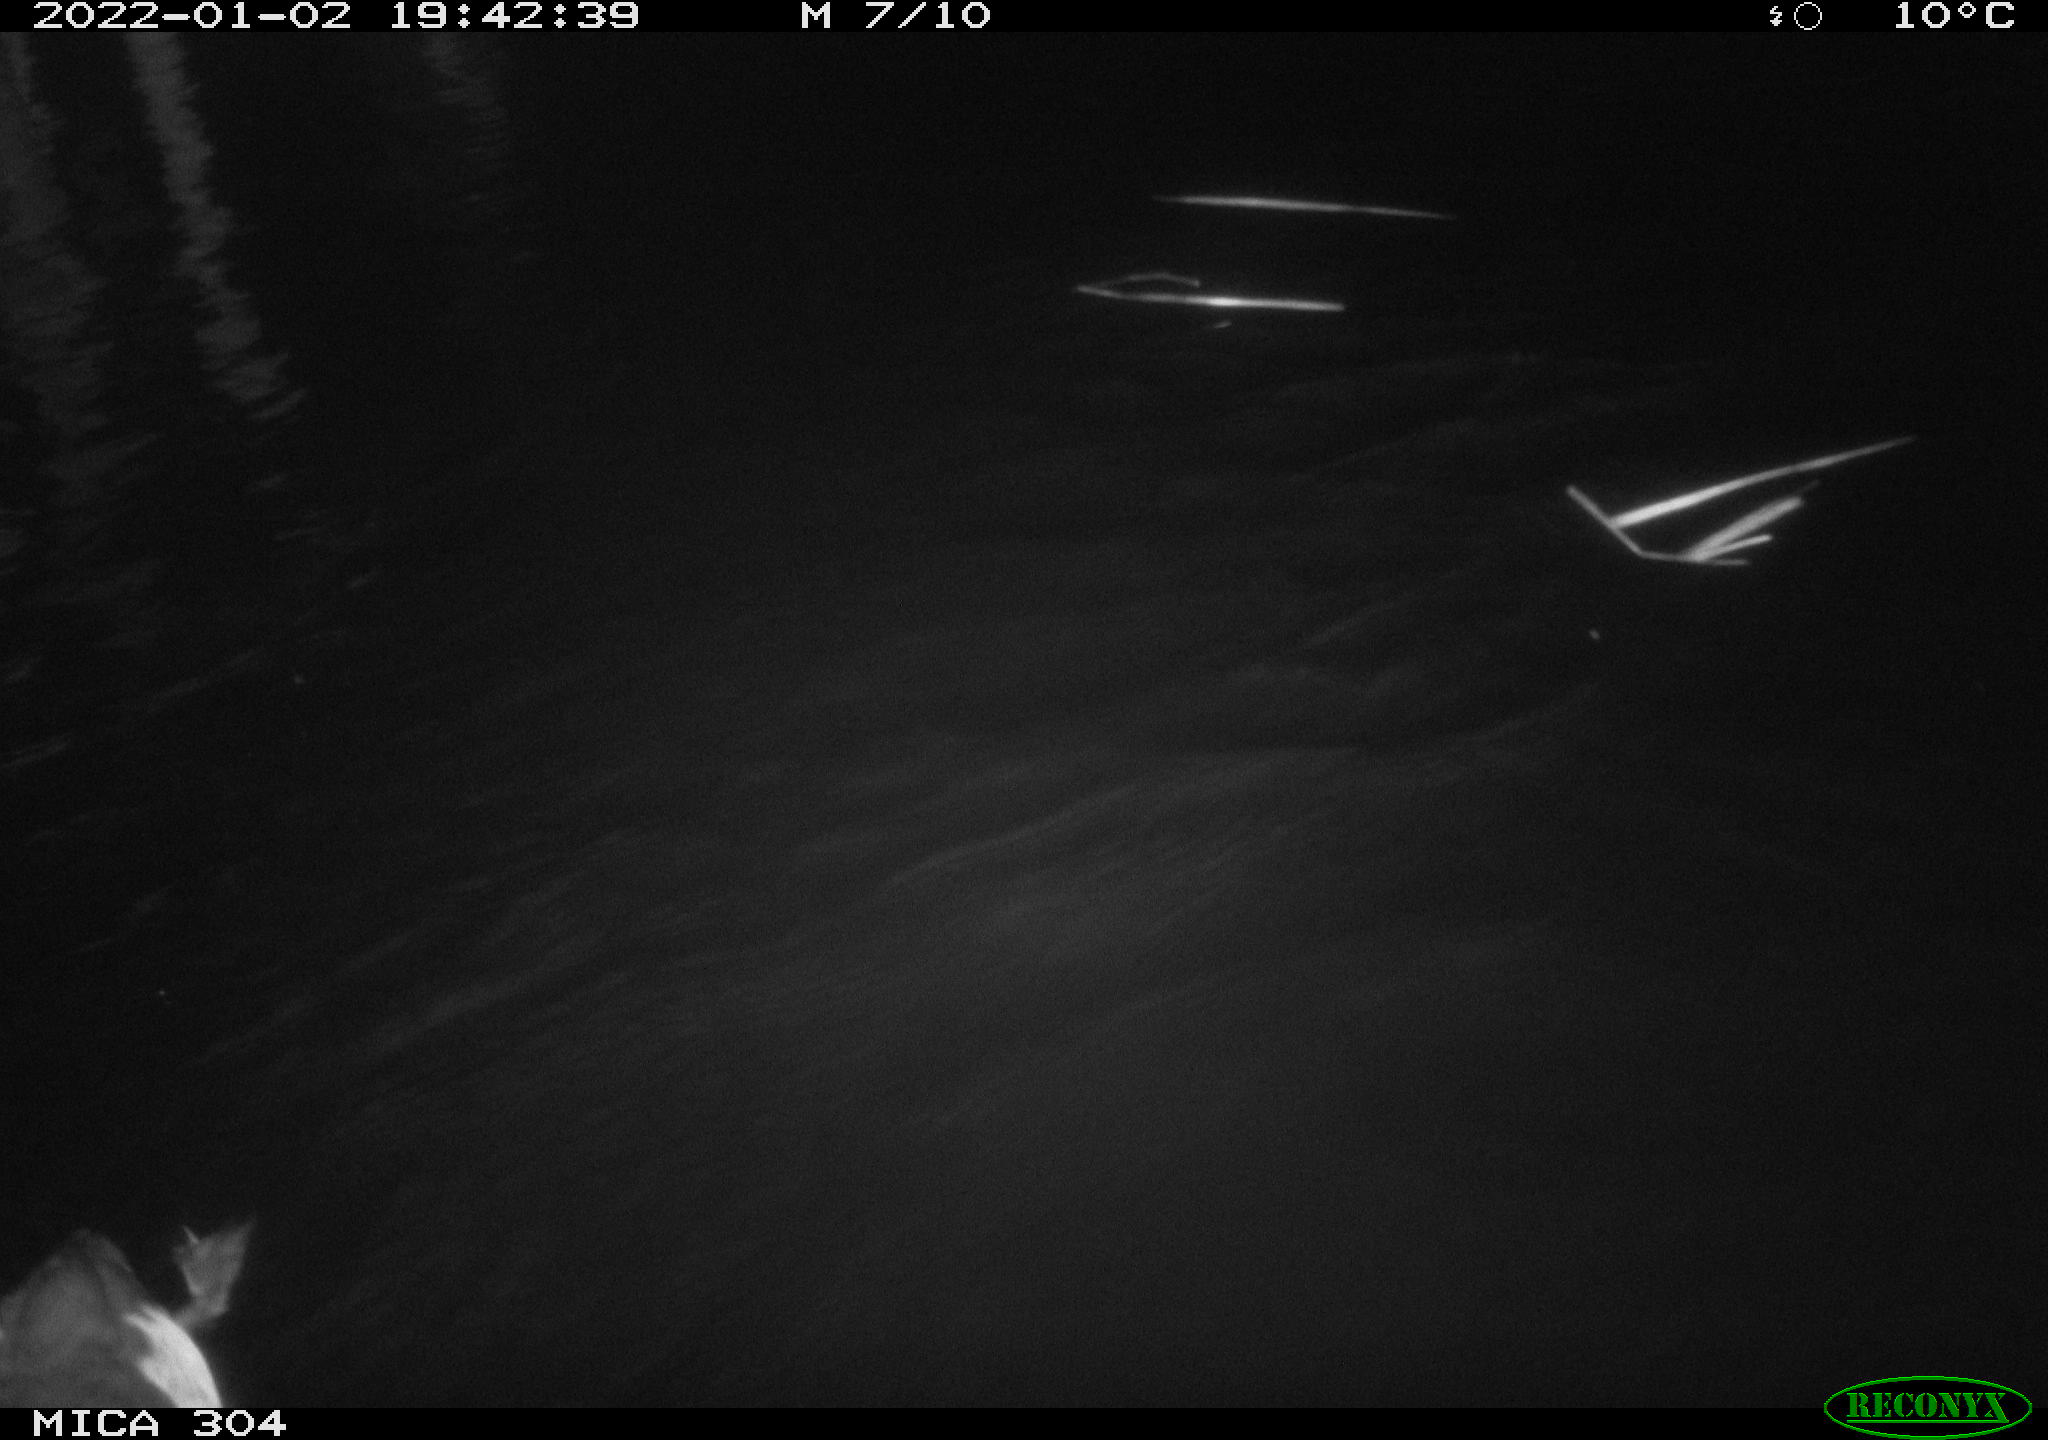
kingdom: Animalia
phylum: Chordata
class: Aves
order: Anseriformes
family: Anatidae
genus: Anas
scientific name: Anas
